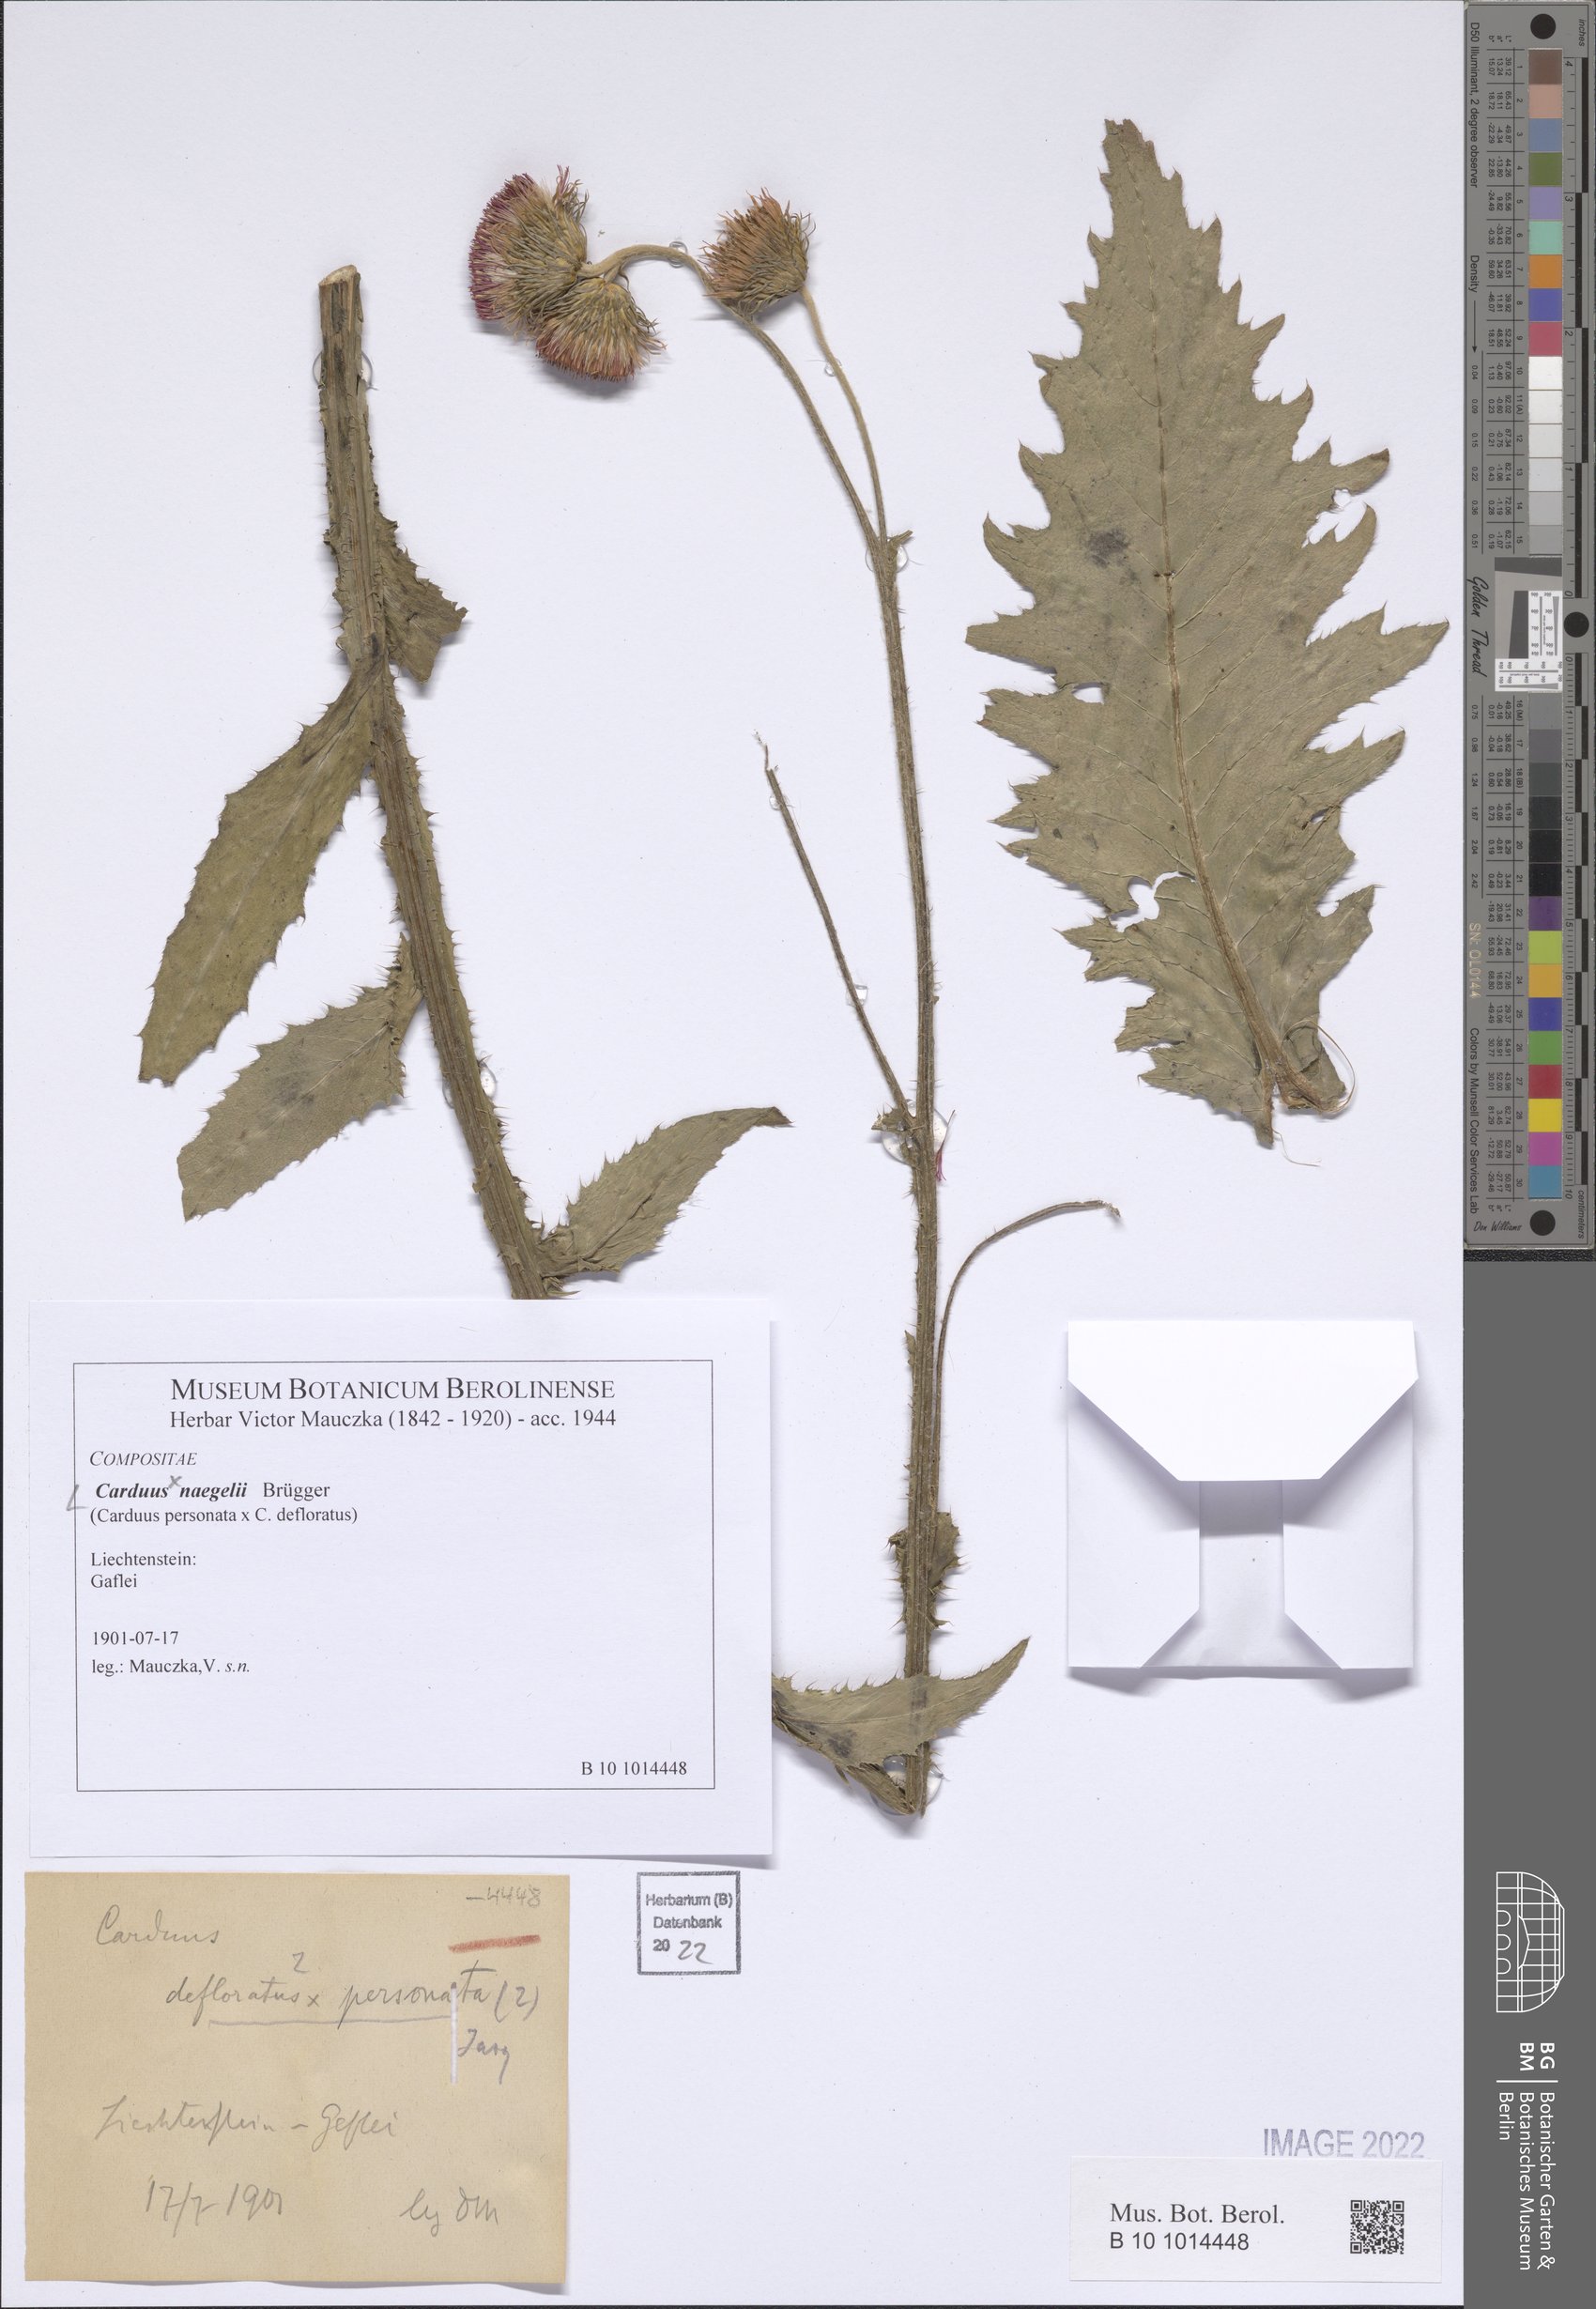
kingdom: Plantae
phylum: Tracheophyta
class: Magnoliopsida
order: Asterales
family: Asteraceae
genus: Carduus
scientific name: Carduus naegelii
